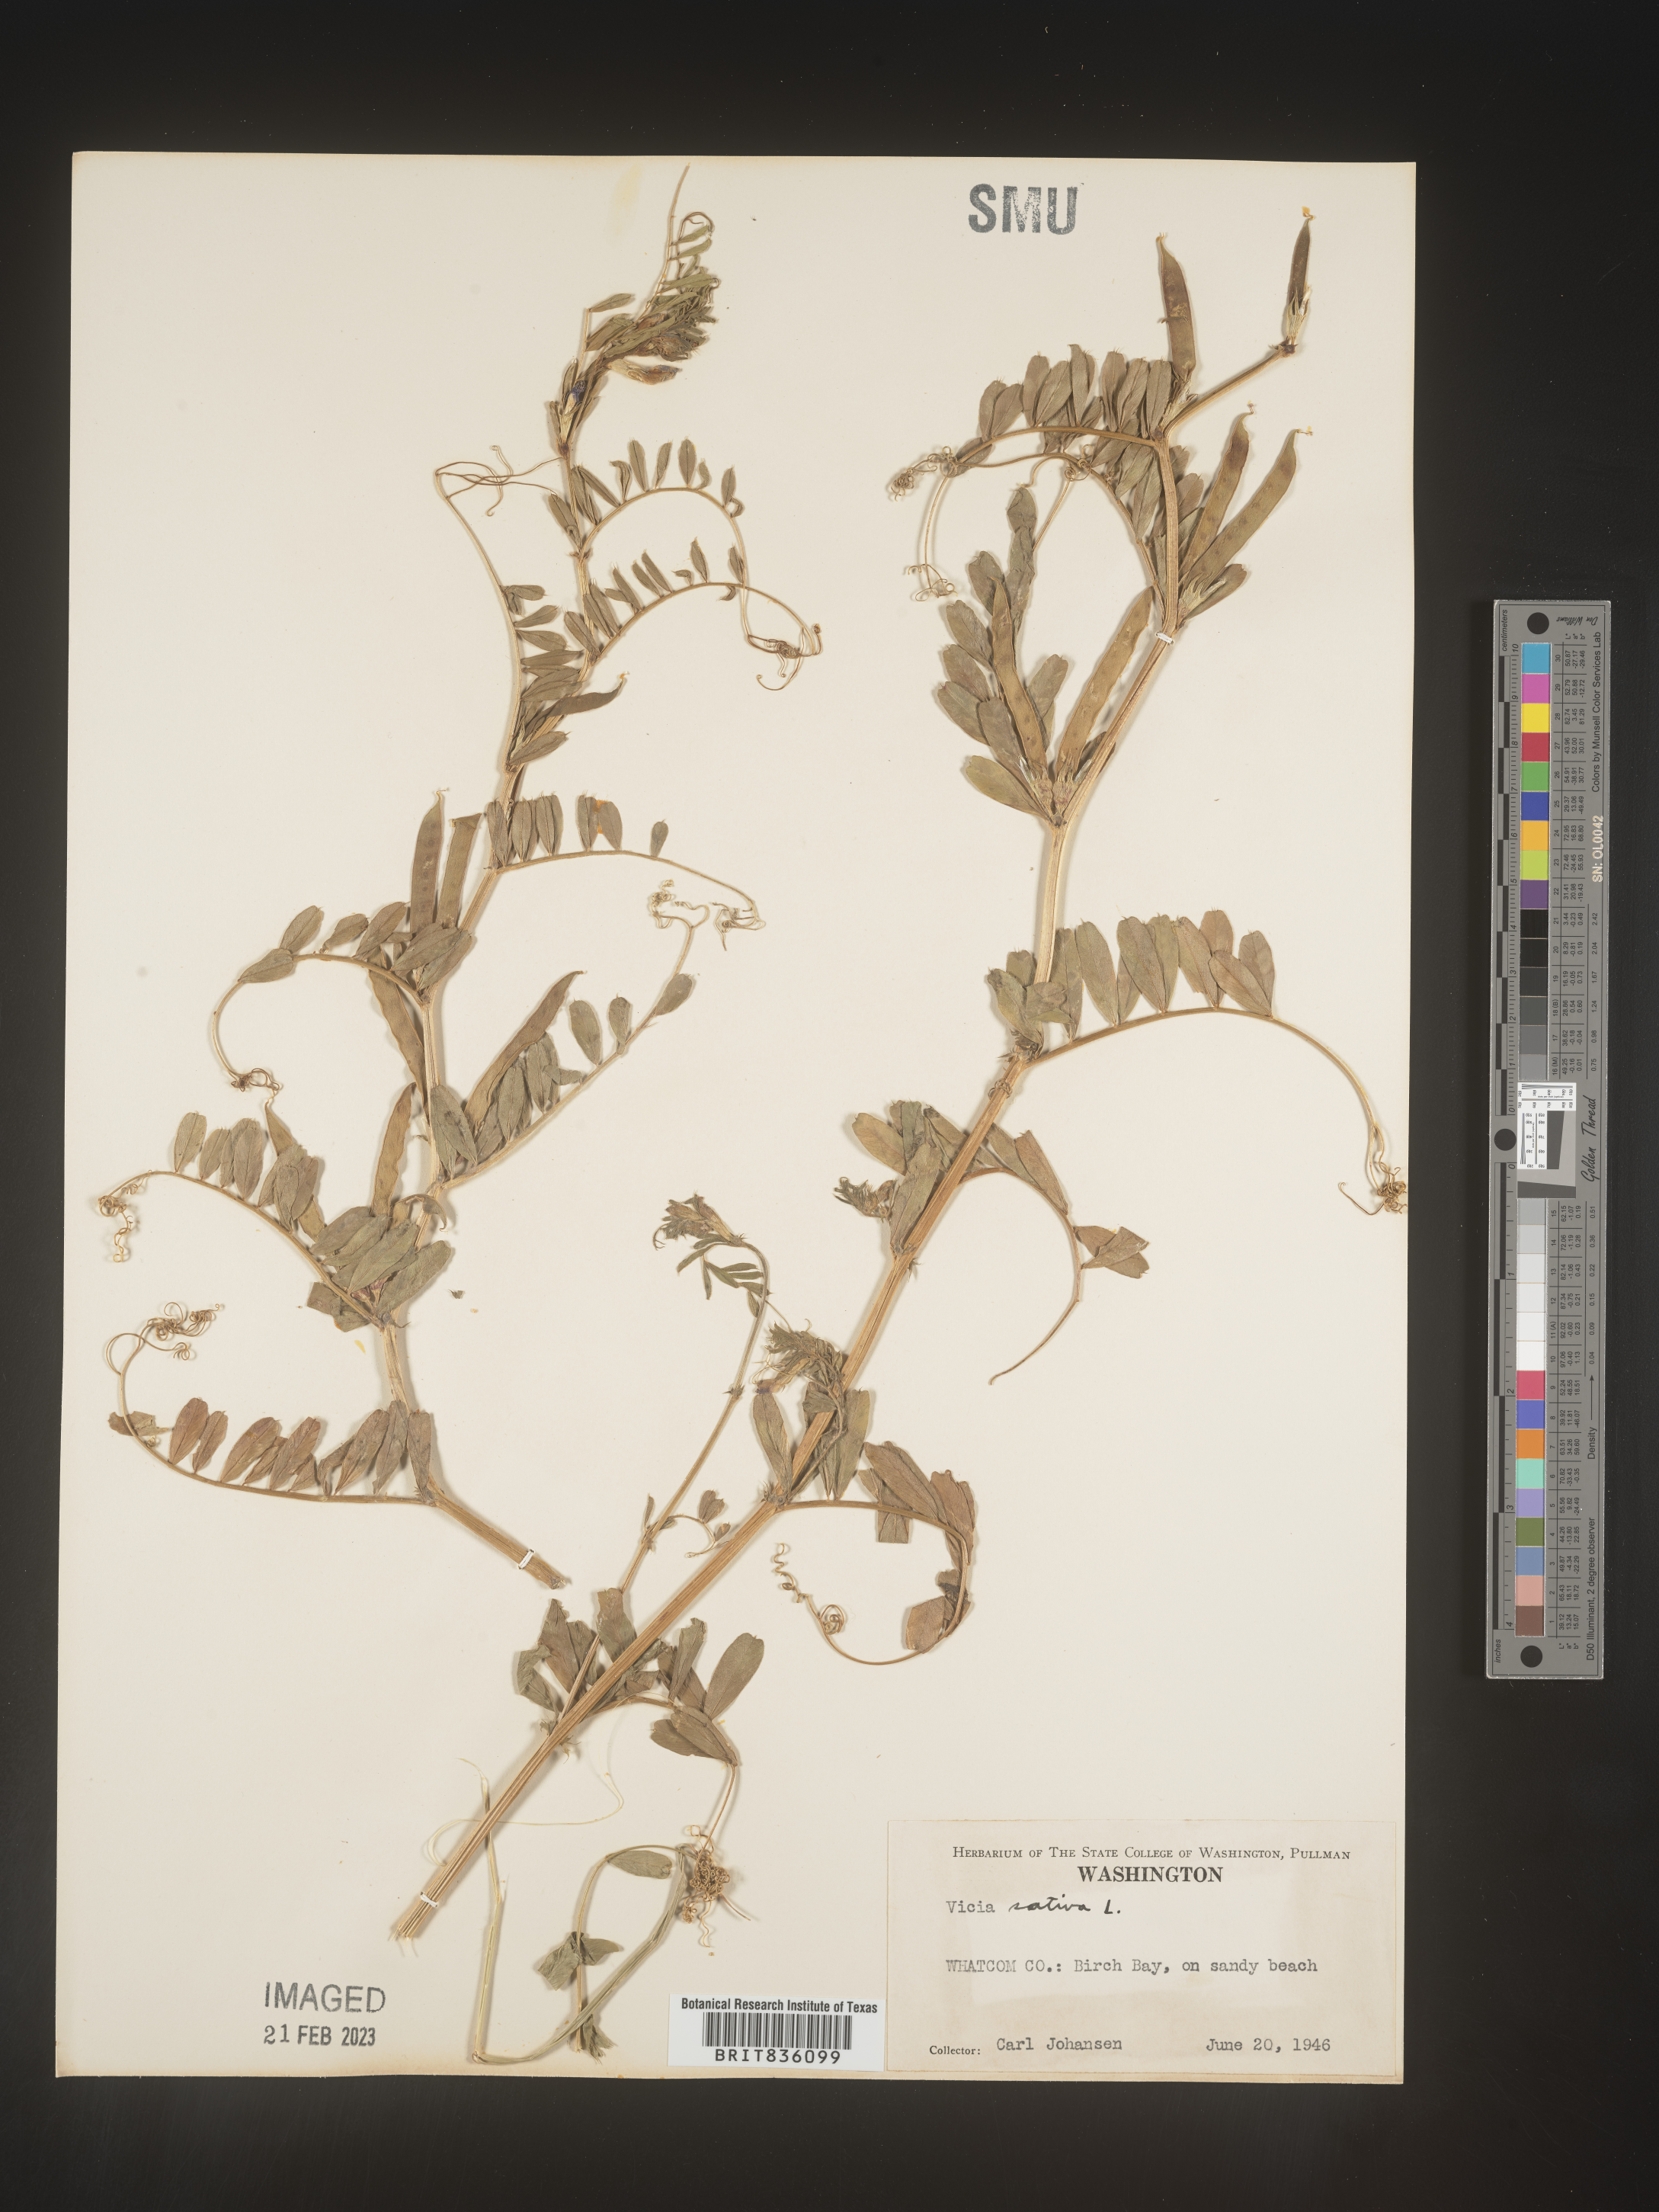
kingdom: Plantae
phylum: Tracheophyta
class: Magnoliopsida
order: Fabales
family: Fabaceae
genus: Vicia
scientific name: Vicia sativa
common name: Garden vetch
